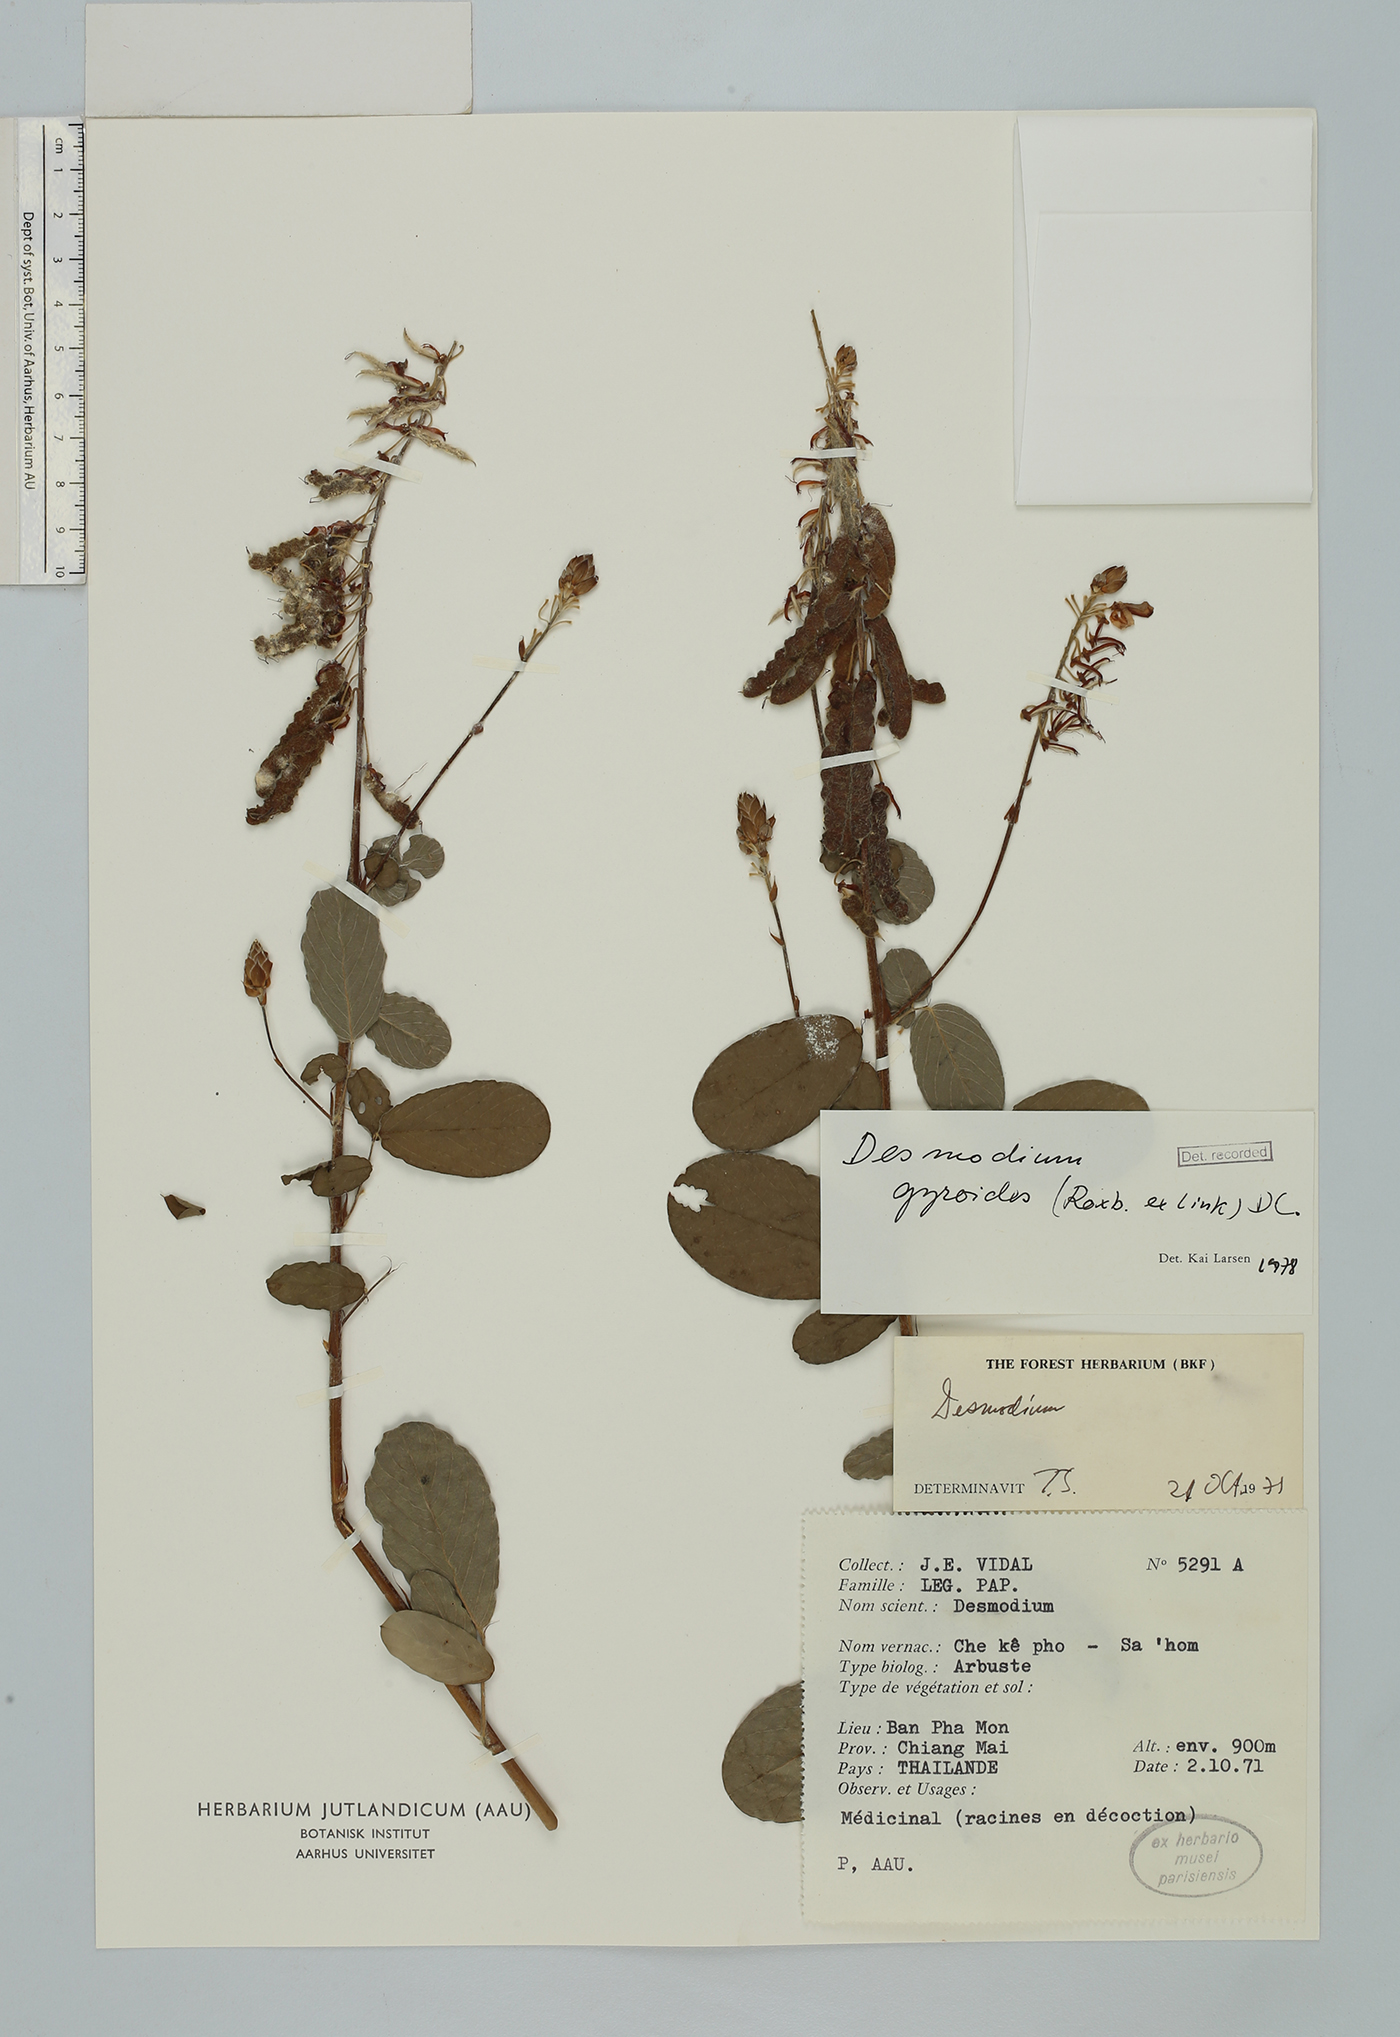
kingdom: Plantae
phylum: Tracheophyta
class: Magnoliopsida
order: Fabales
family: Fabaceae
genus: Codariocalyx
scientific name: Codariocalyx gyroides
